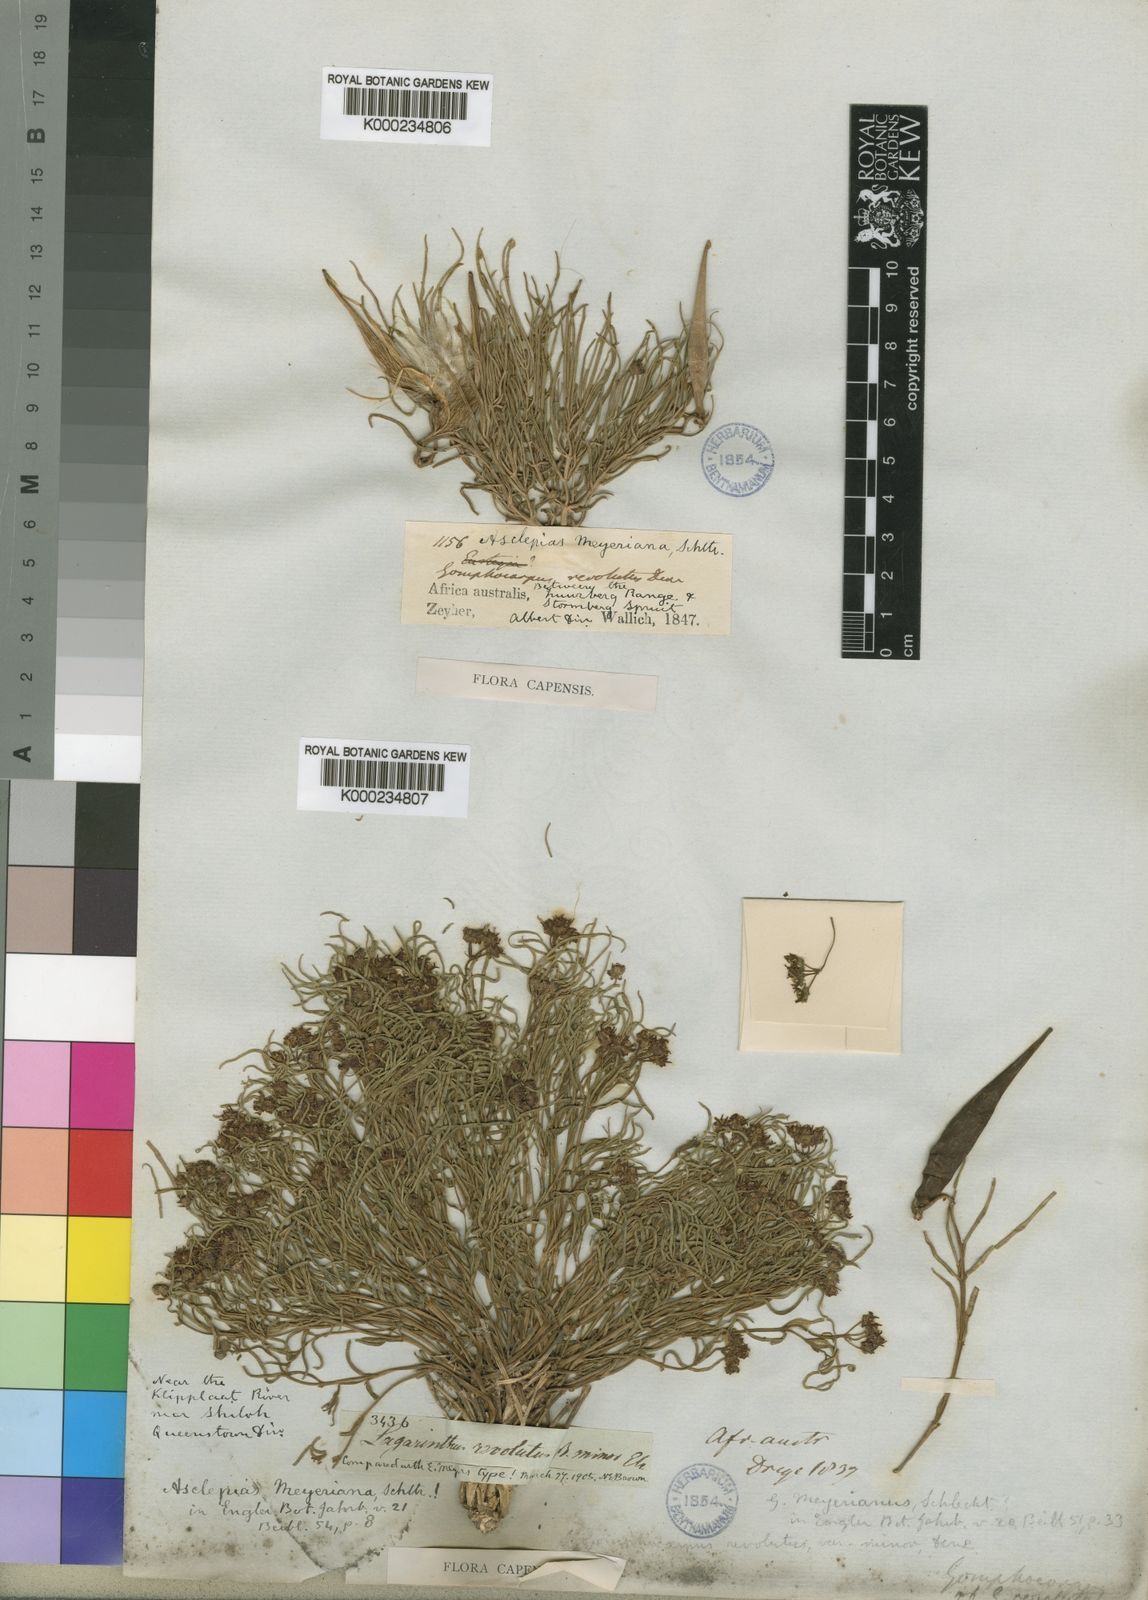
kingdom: Plantae
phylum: Tracheophyta
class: Magnoliopsida
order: Gentianales
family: Apocynaceae
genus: Asclepias
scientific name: Asclepias meyeriana
